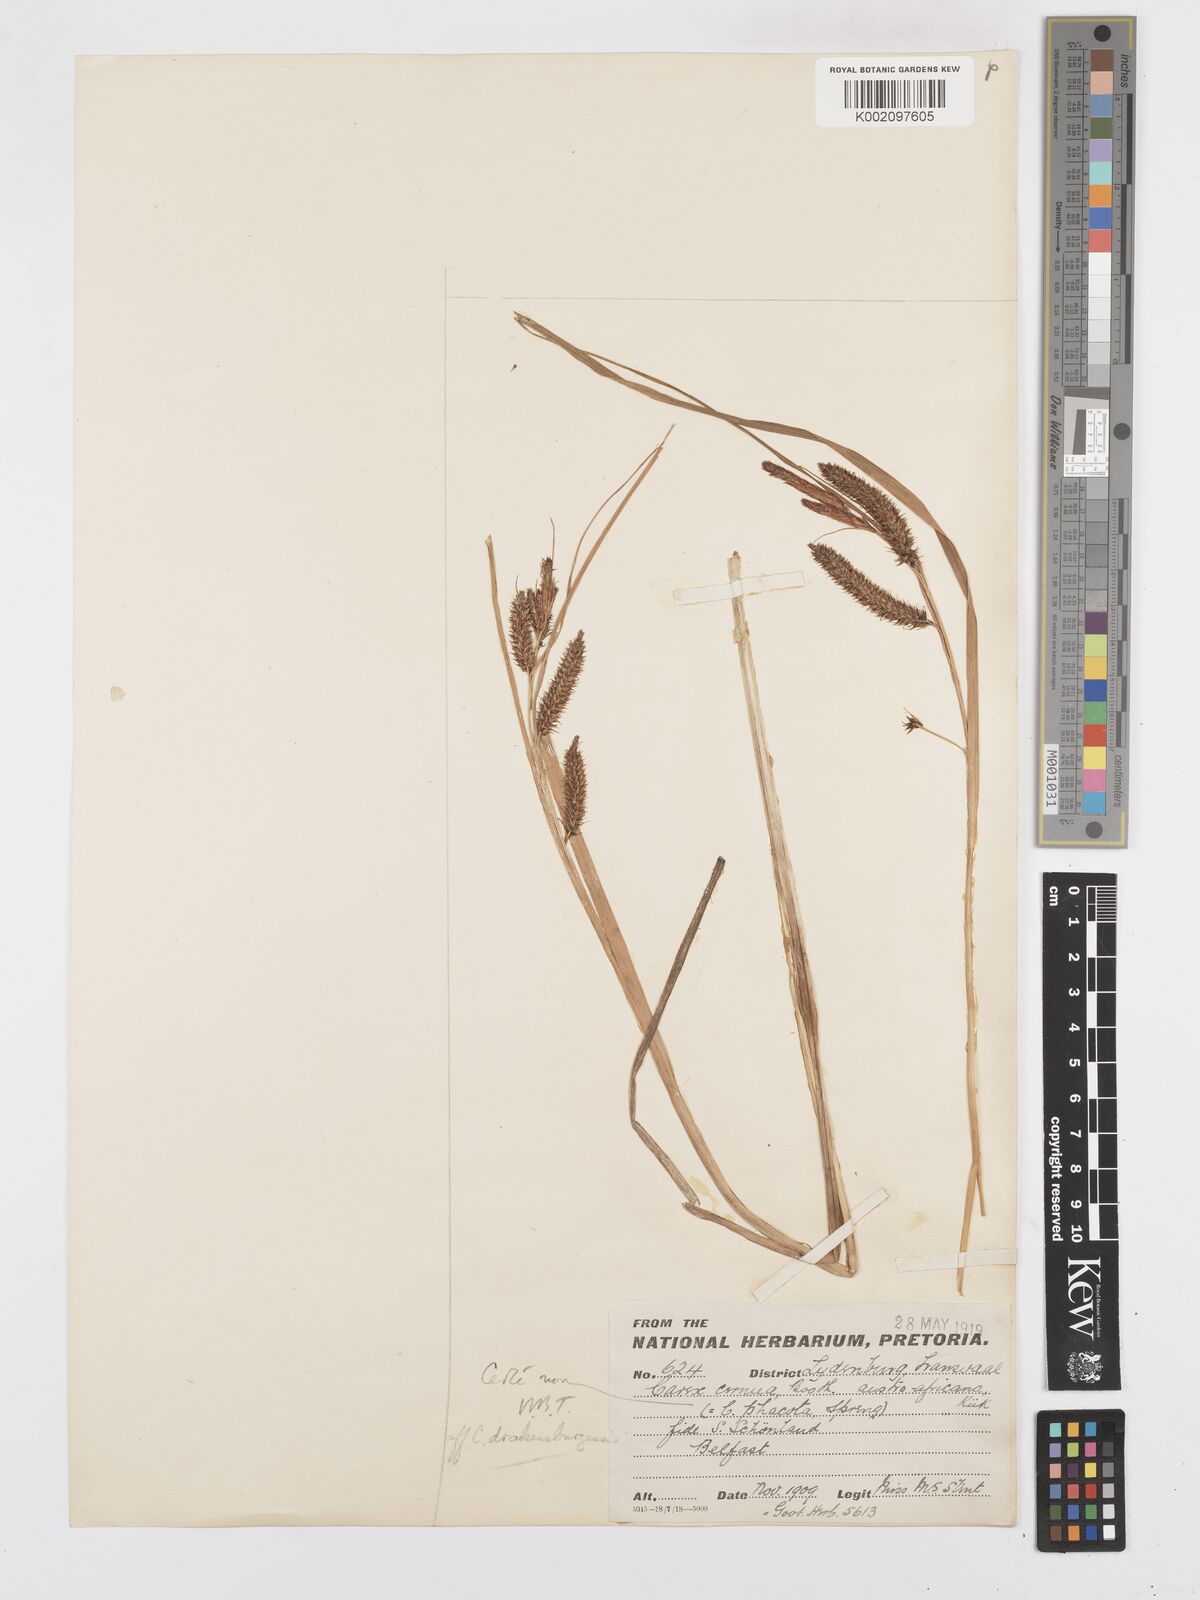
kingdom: Plantae
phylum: Tracheophyta
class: Liliopsida
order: Poales
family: Cyperaceae
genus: Carex
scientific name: Carex cognata
